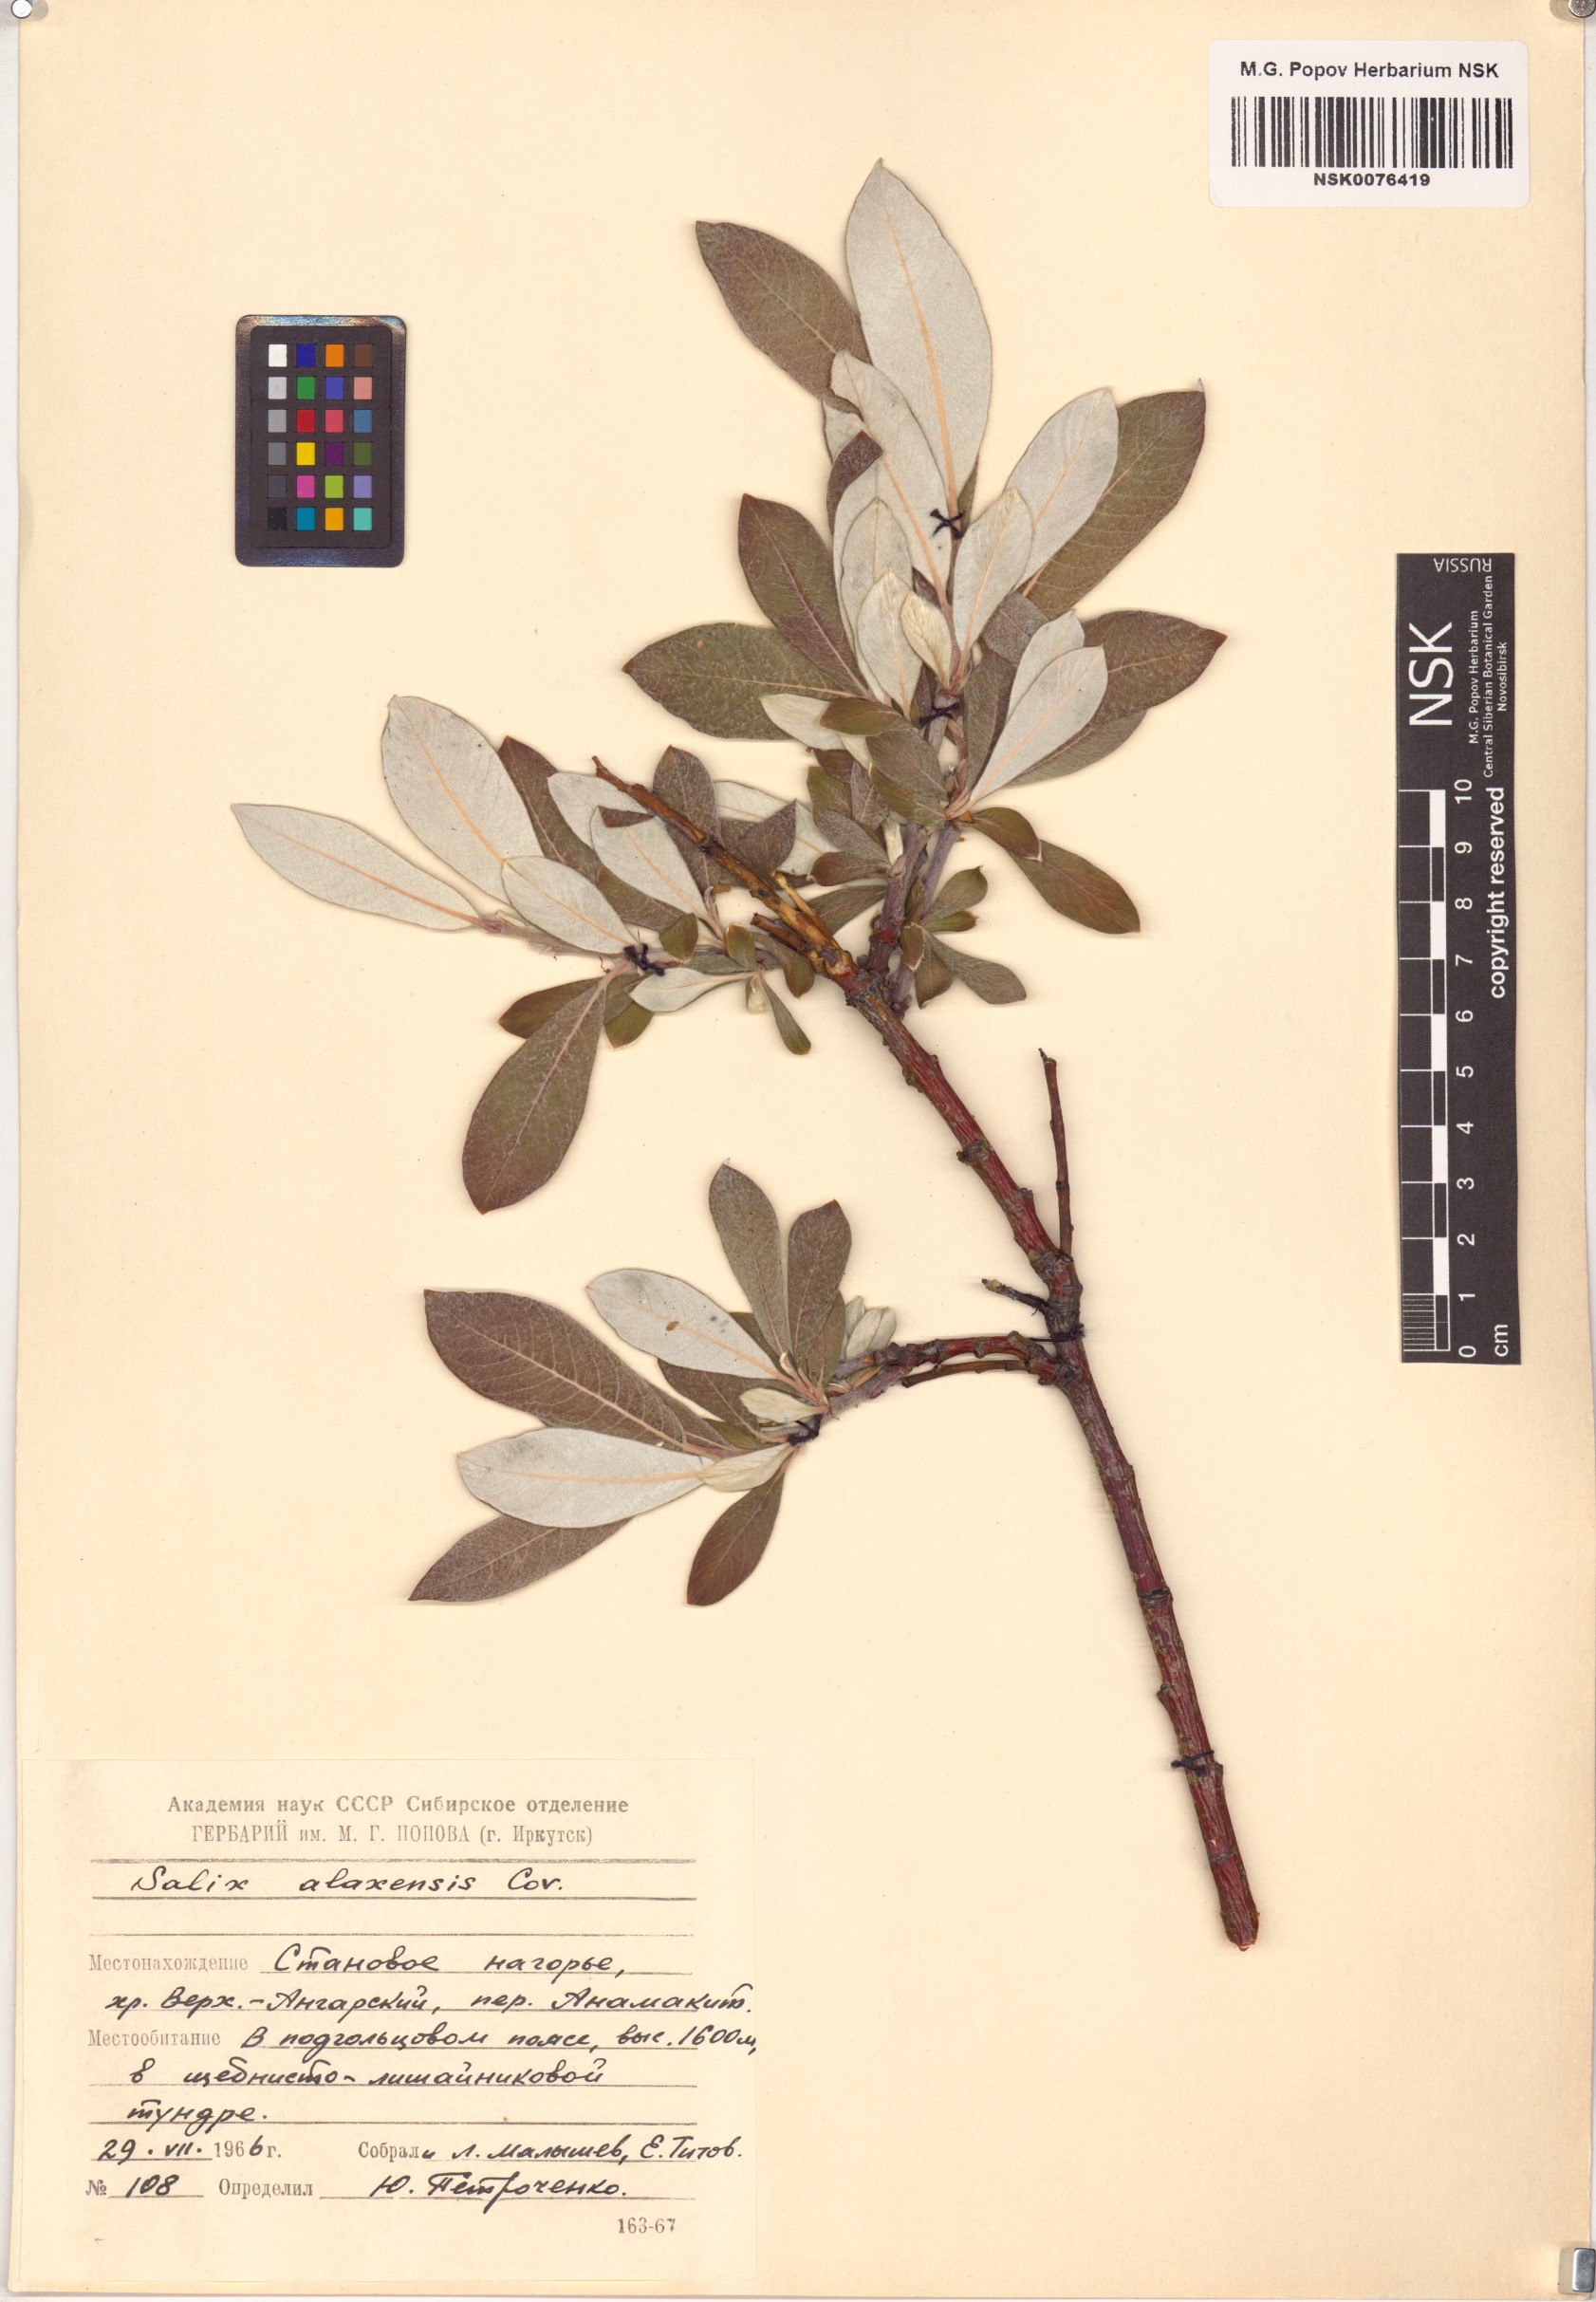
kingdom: Plantae
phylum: Tracheophyta
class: Magnoliopsida
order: Malpighiales
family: Salicaceae
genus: Salix
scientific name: Salix alaxensis
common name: Feltleaf willow
